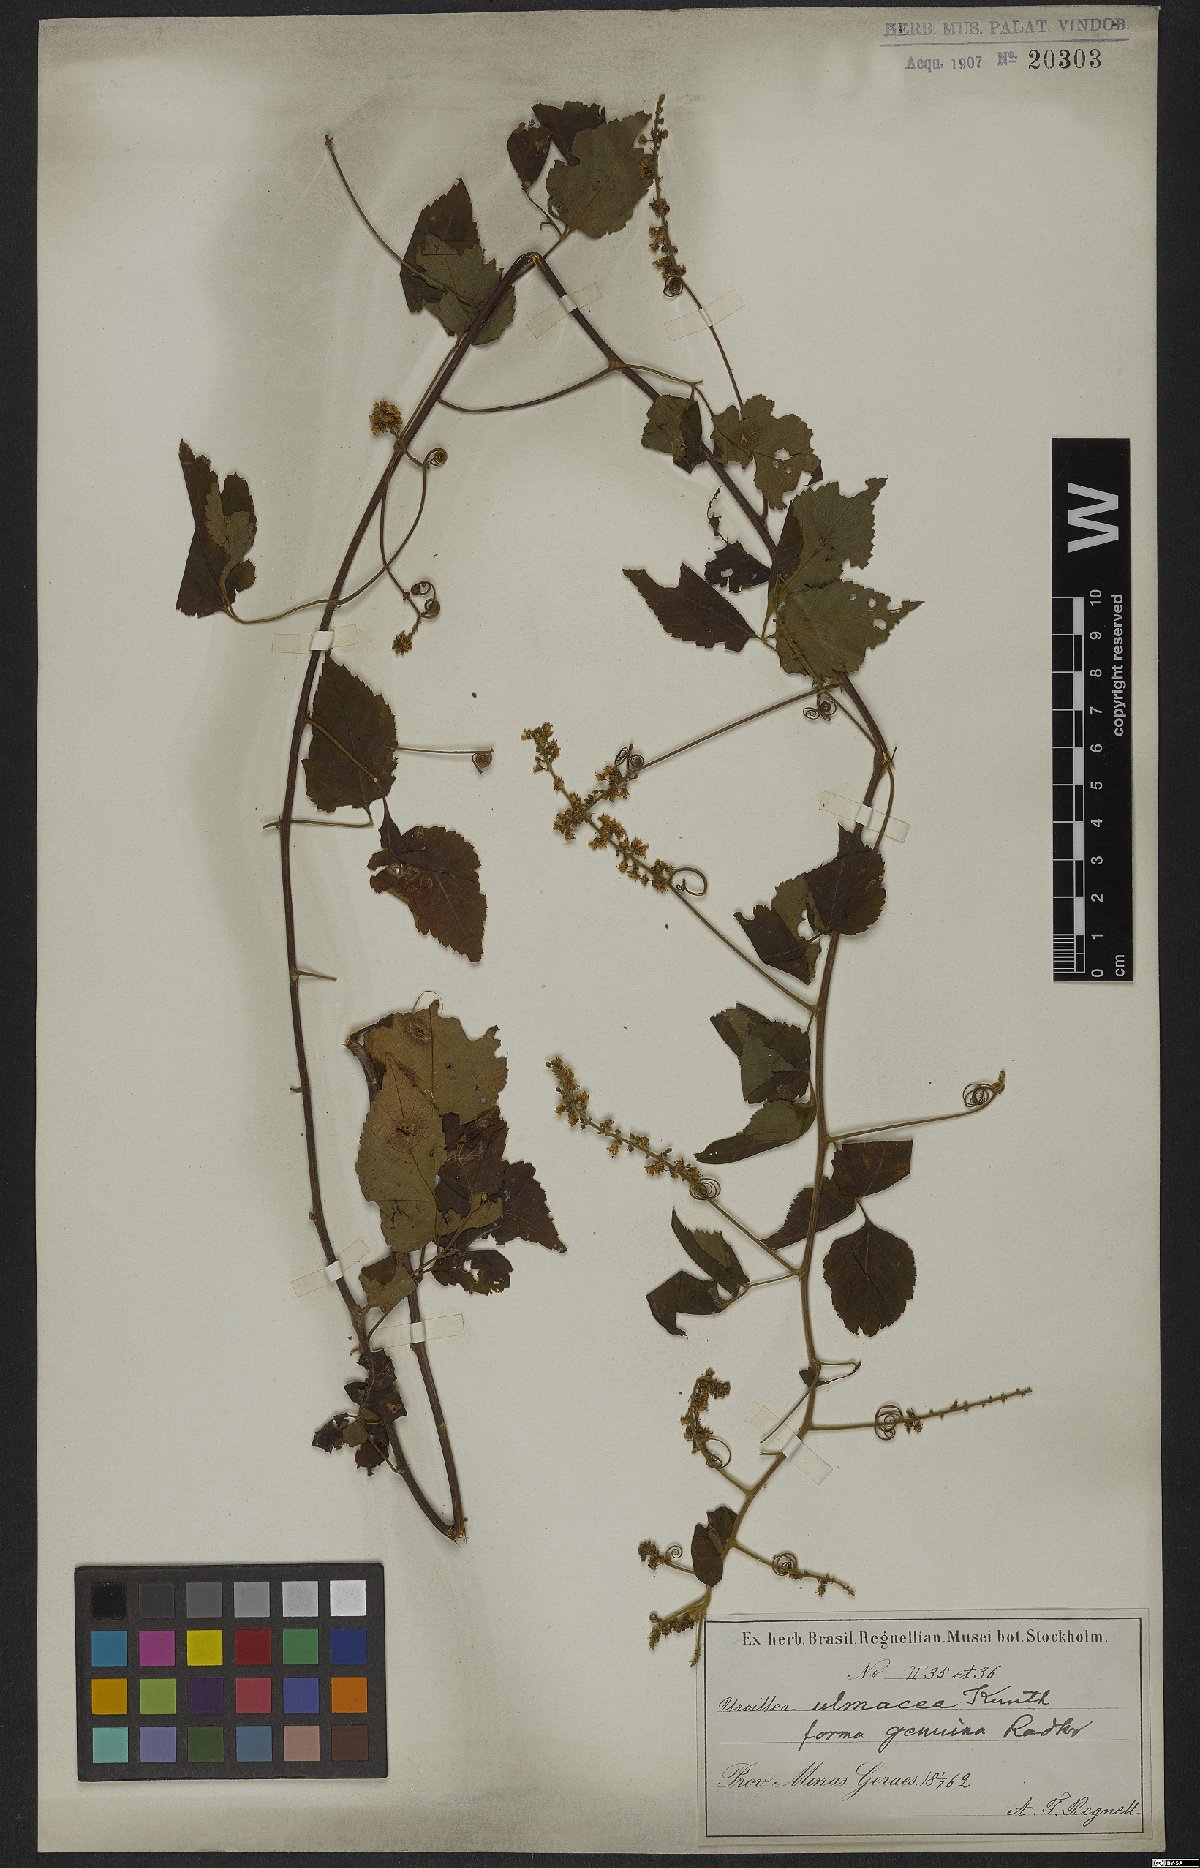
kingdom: Plantae
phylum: Tracheophyta
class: Magnoliopsida
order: Sapindales
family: Sapindaceae
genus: Urvillea
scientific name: Urvillea ulmacea
